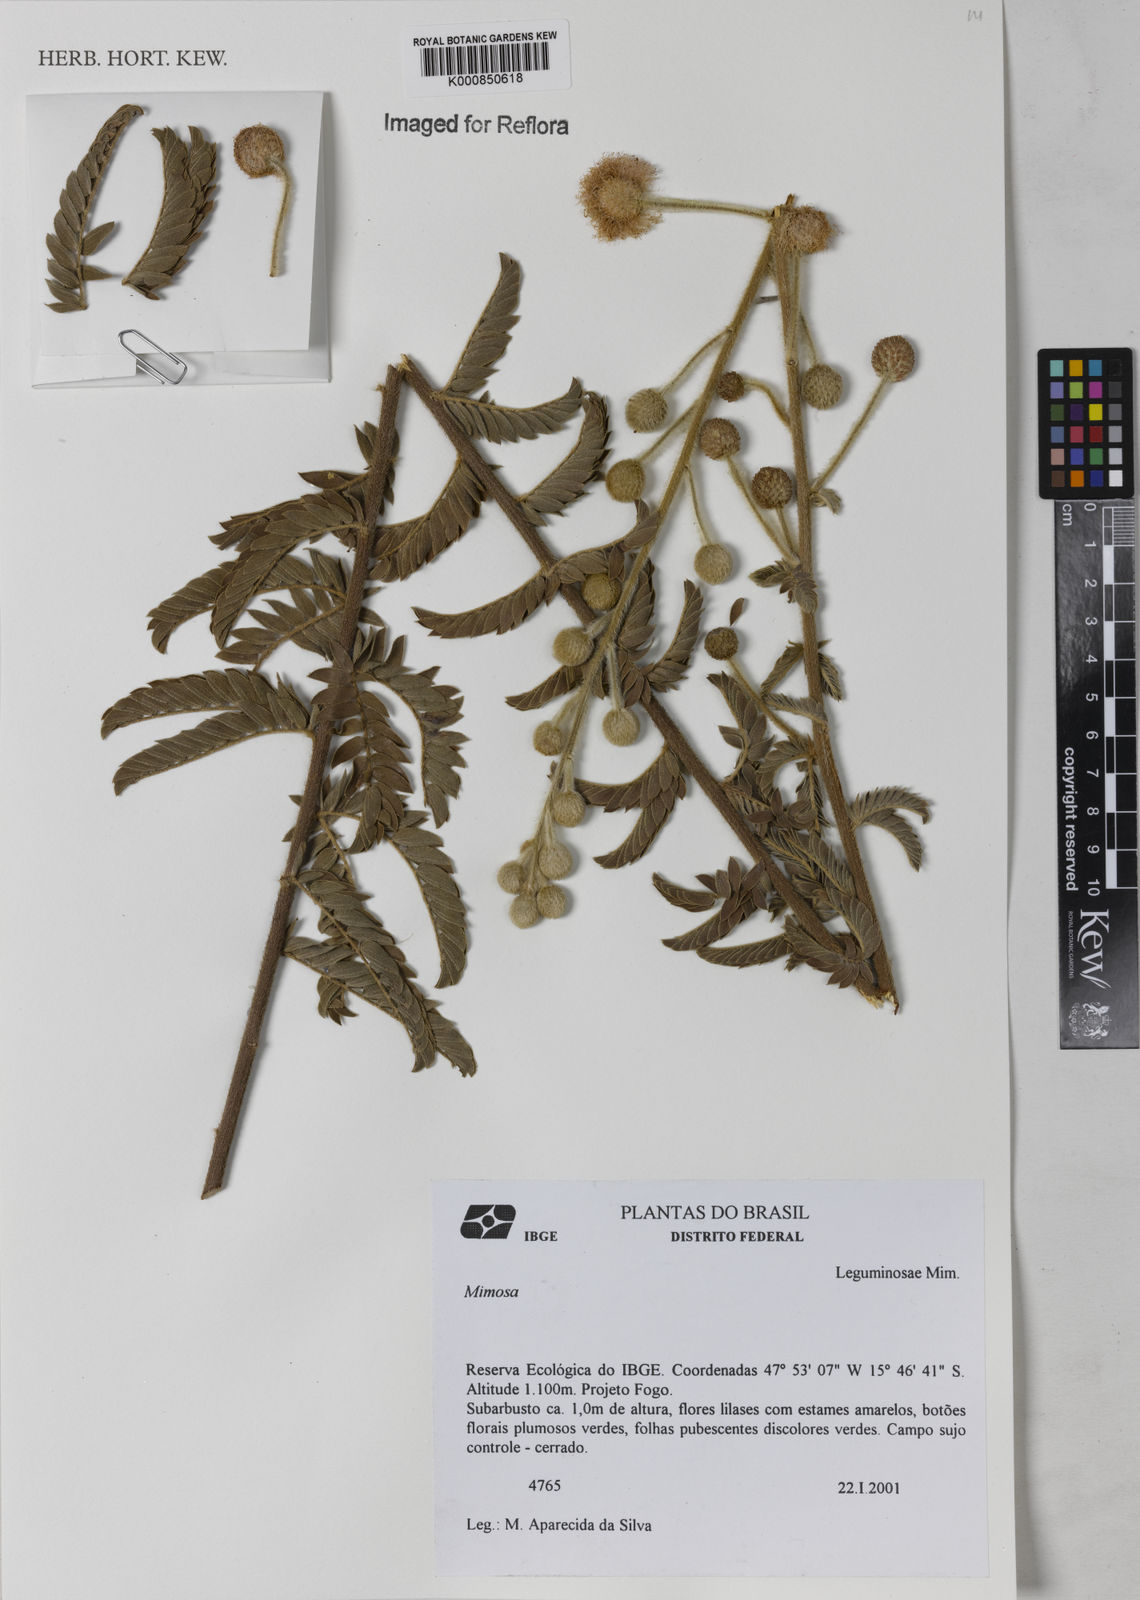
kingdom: Plantae
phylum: Tracheophyta
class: Magnoliopsida
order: Fabales
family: Fabaceae
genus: Mimosa
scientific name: Mimosa
